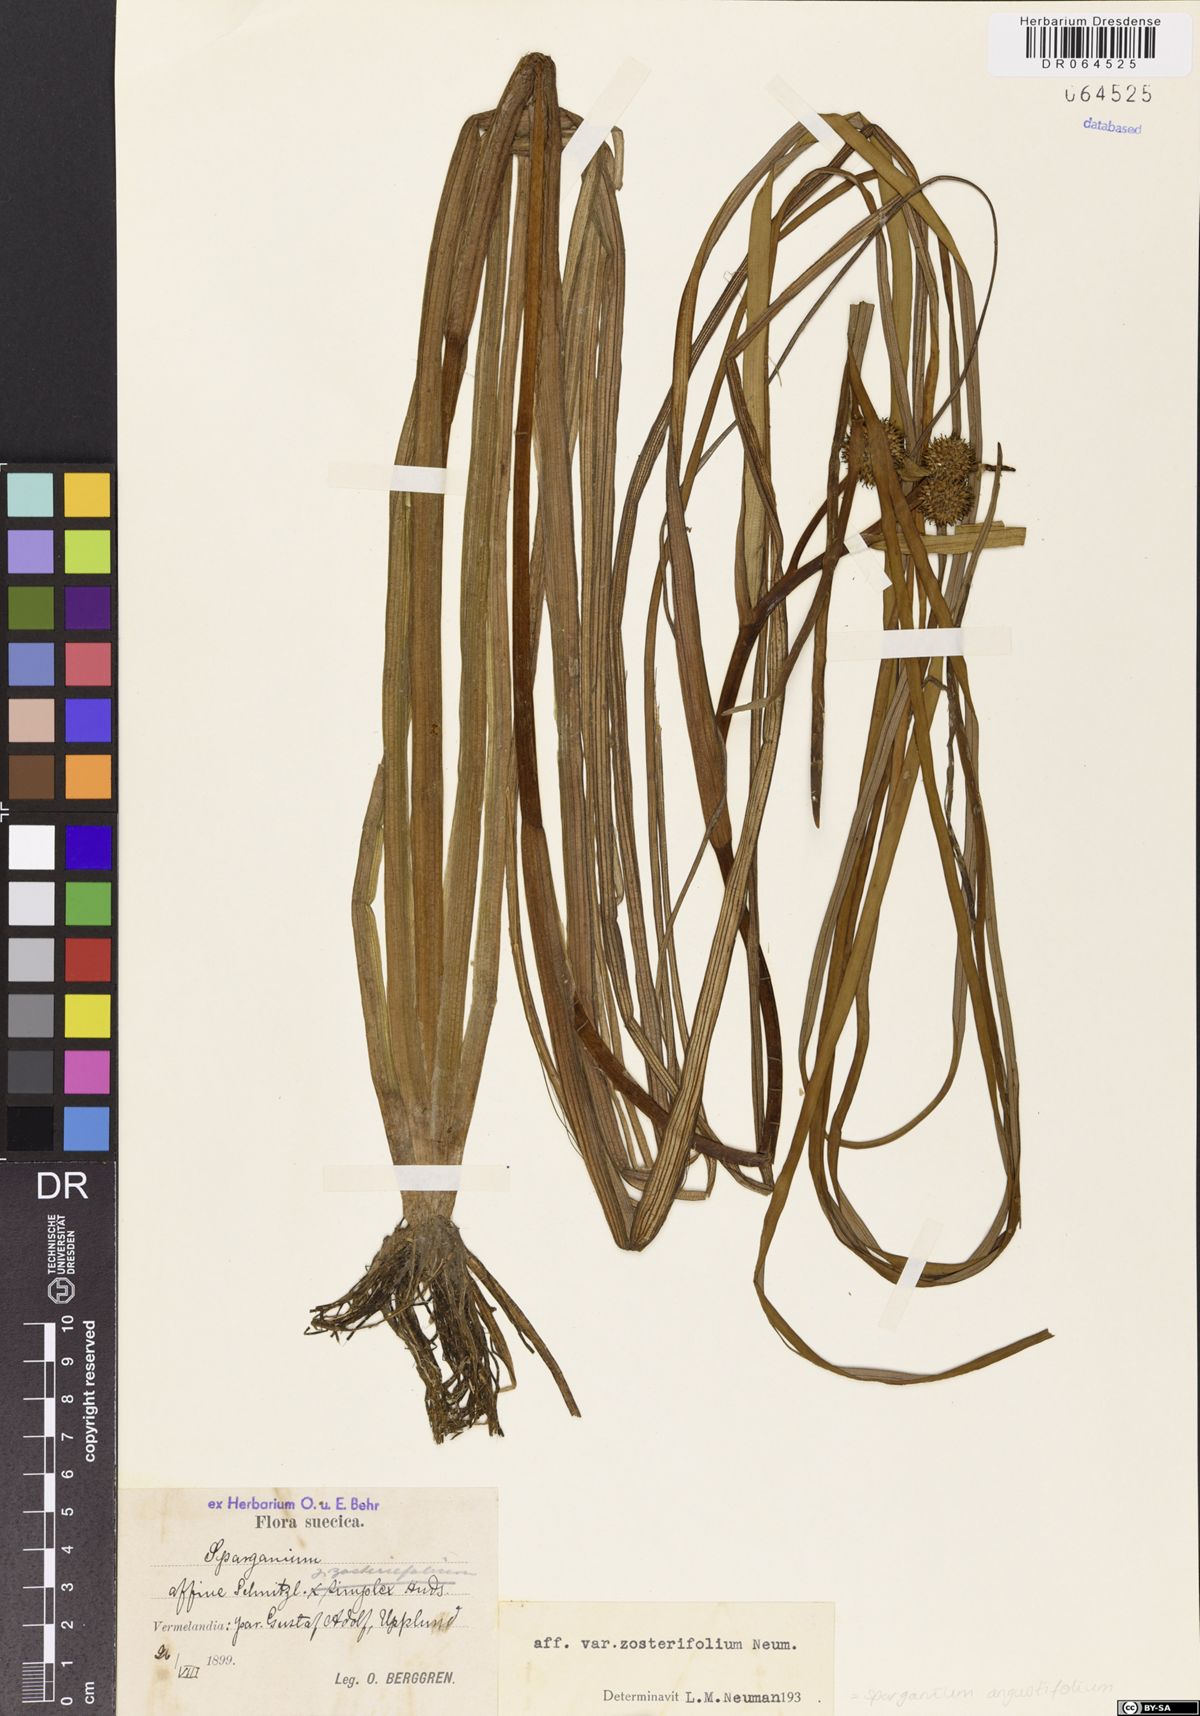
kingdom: Plantae
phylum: Tracheophyta
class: Liliopsida
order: Poales
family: Typhaceae
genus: Sparganium
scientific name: Sparganium angustifolium
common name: Floating bur-reed
